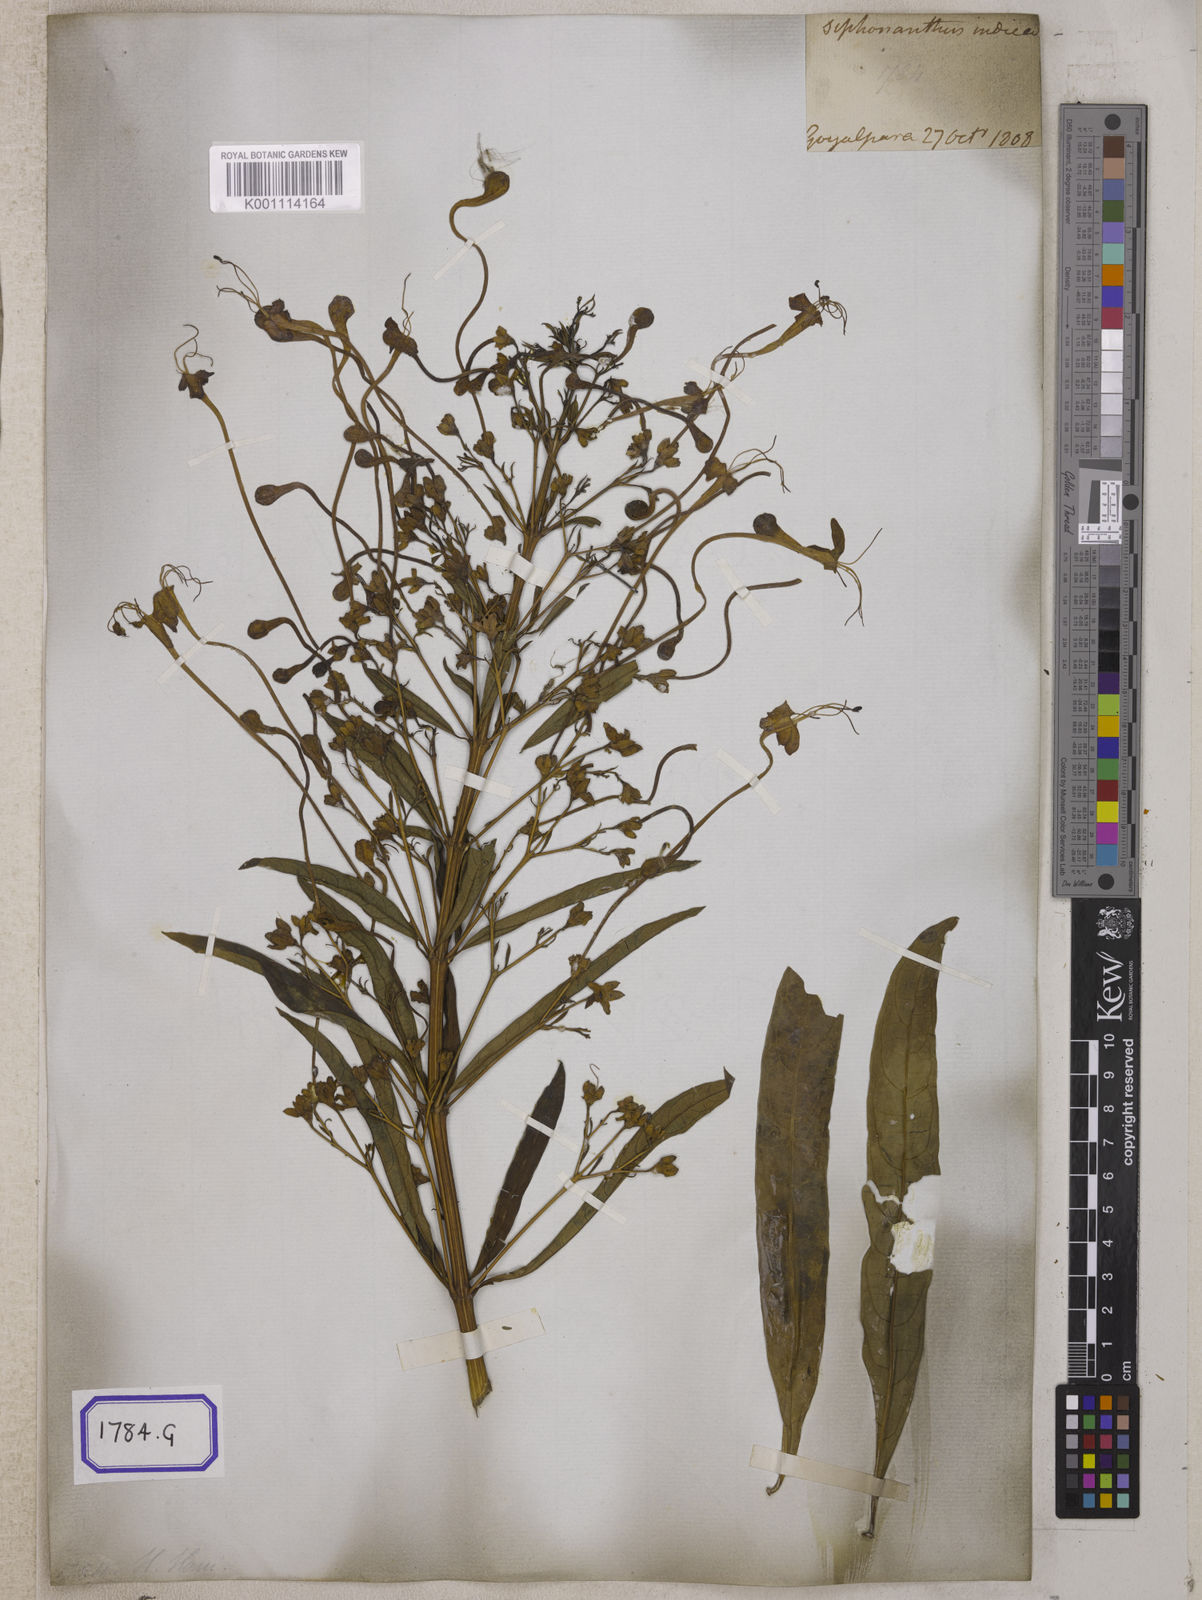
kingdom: Plantae
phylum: Tracheophyta
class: Magnoliopsida
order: Lamiales
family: Lamiaceae
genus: Clerodendrum
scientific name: Clerodendrum indicum
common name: Turk's turbin
